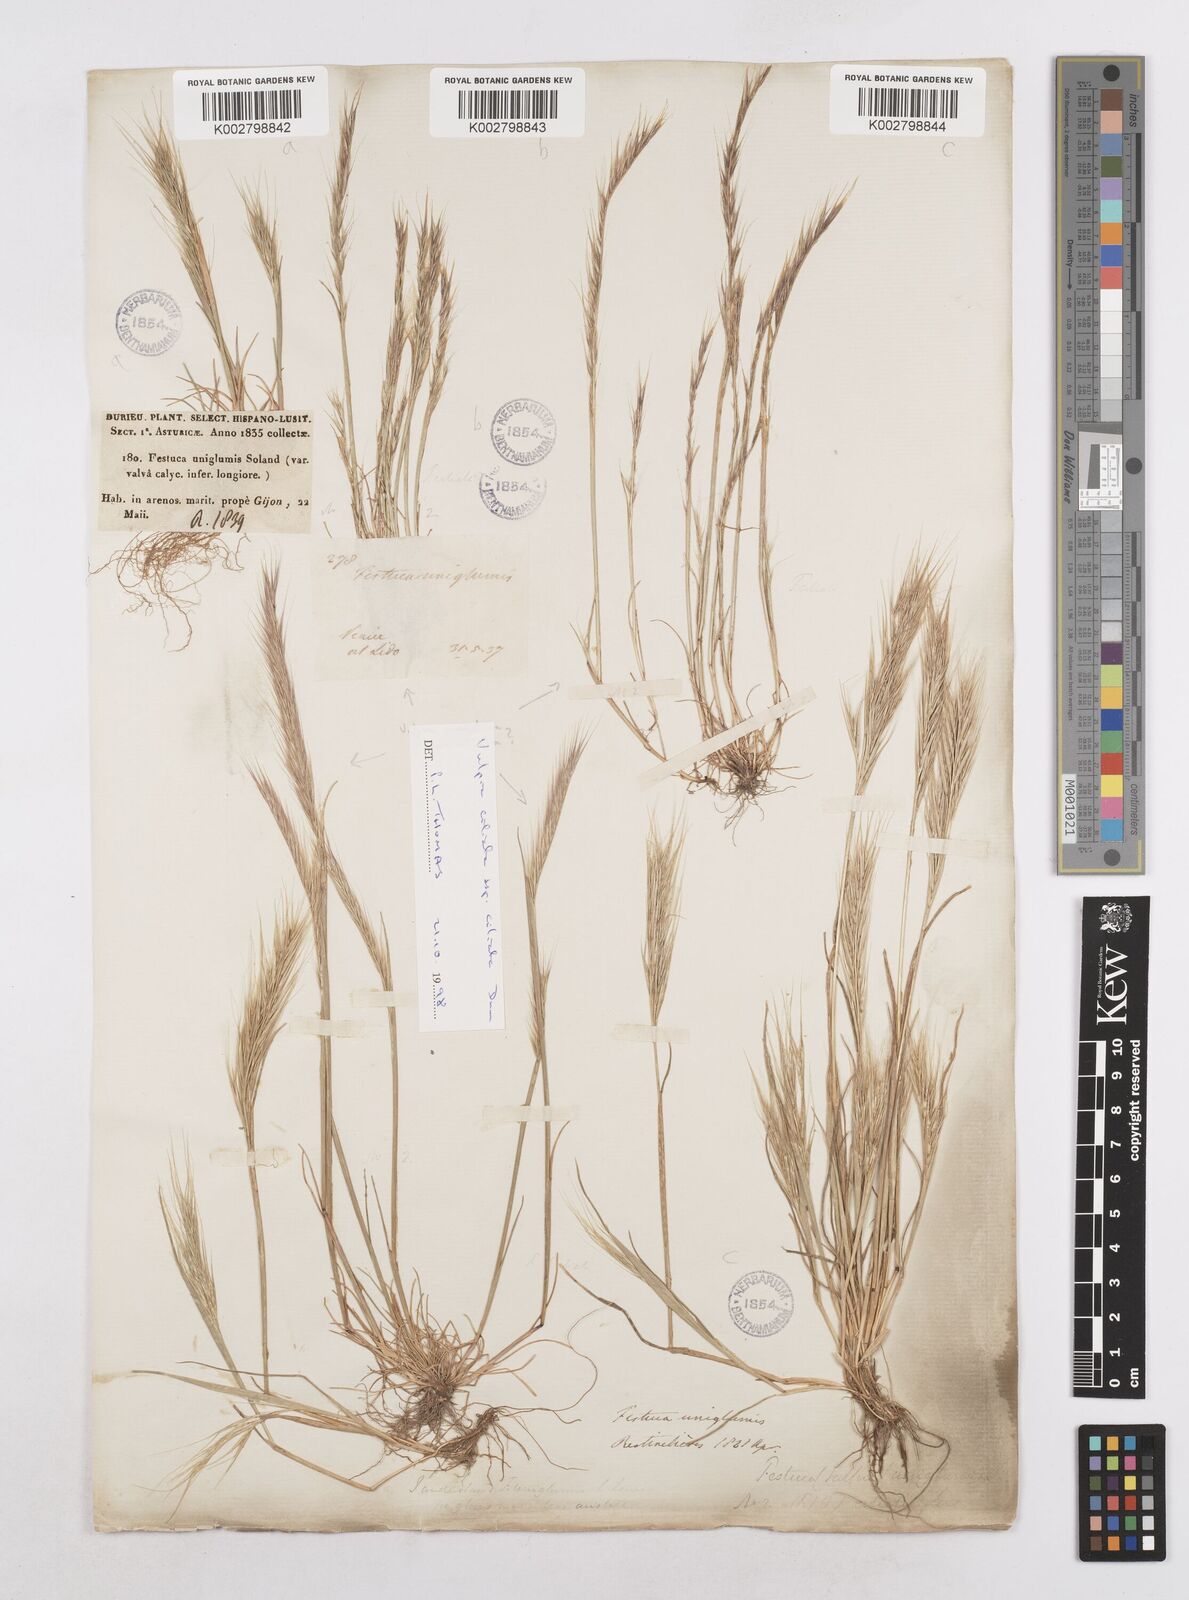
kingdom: Plantae
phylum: Tracheophyta
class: Liliopsida
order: Poales
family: Poaceae
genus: Festuca
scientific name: Festuca membranacea
